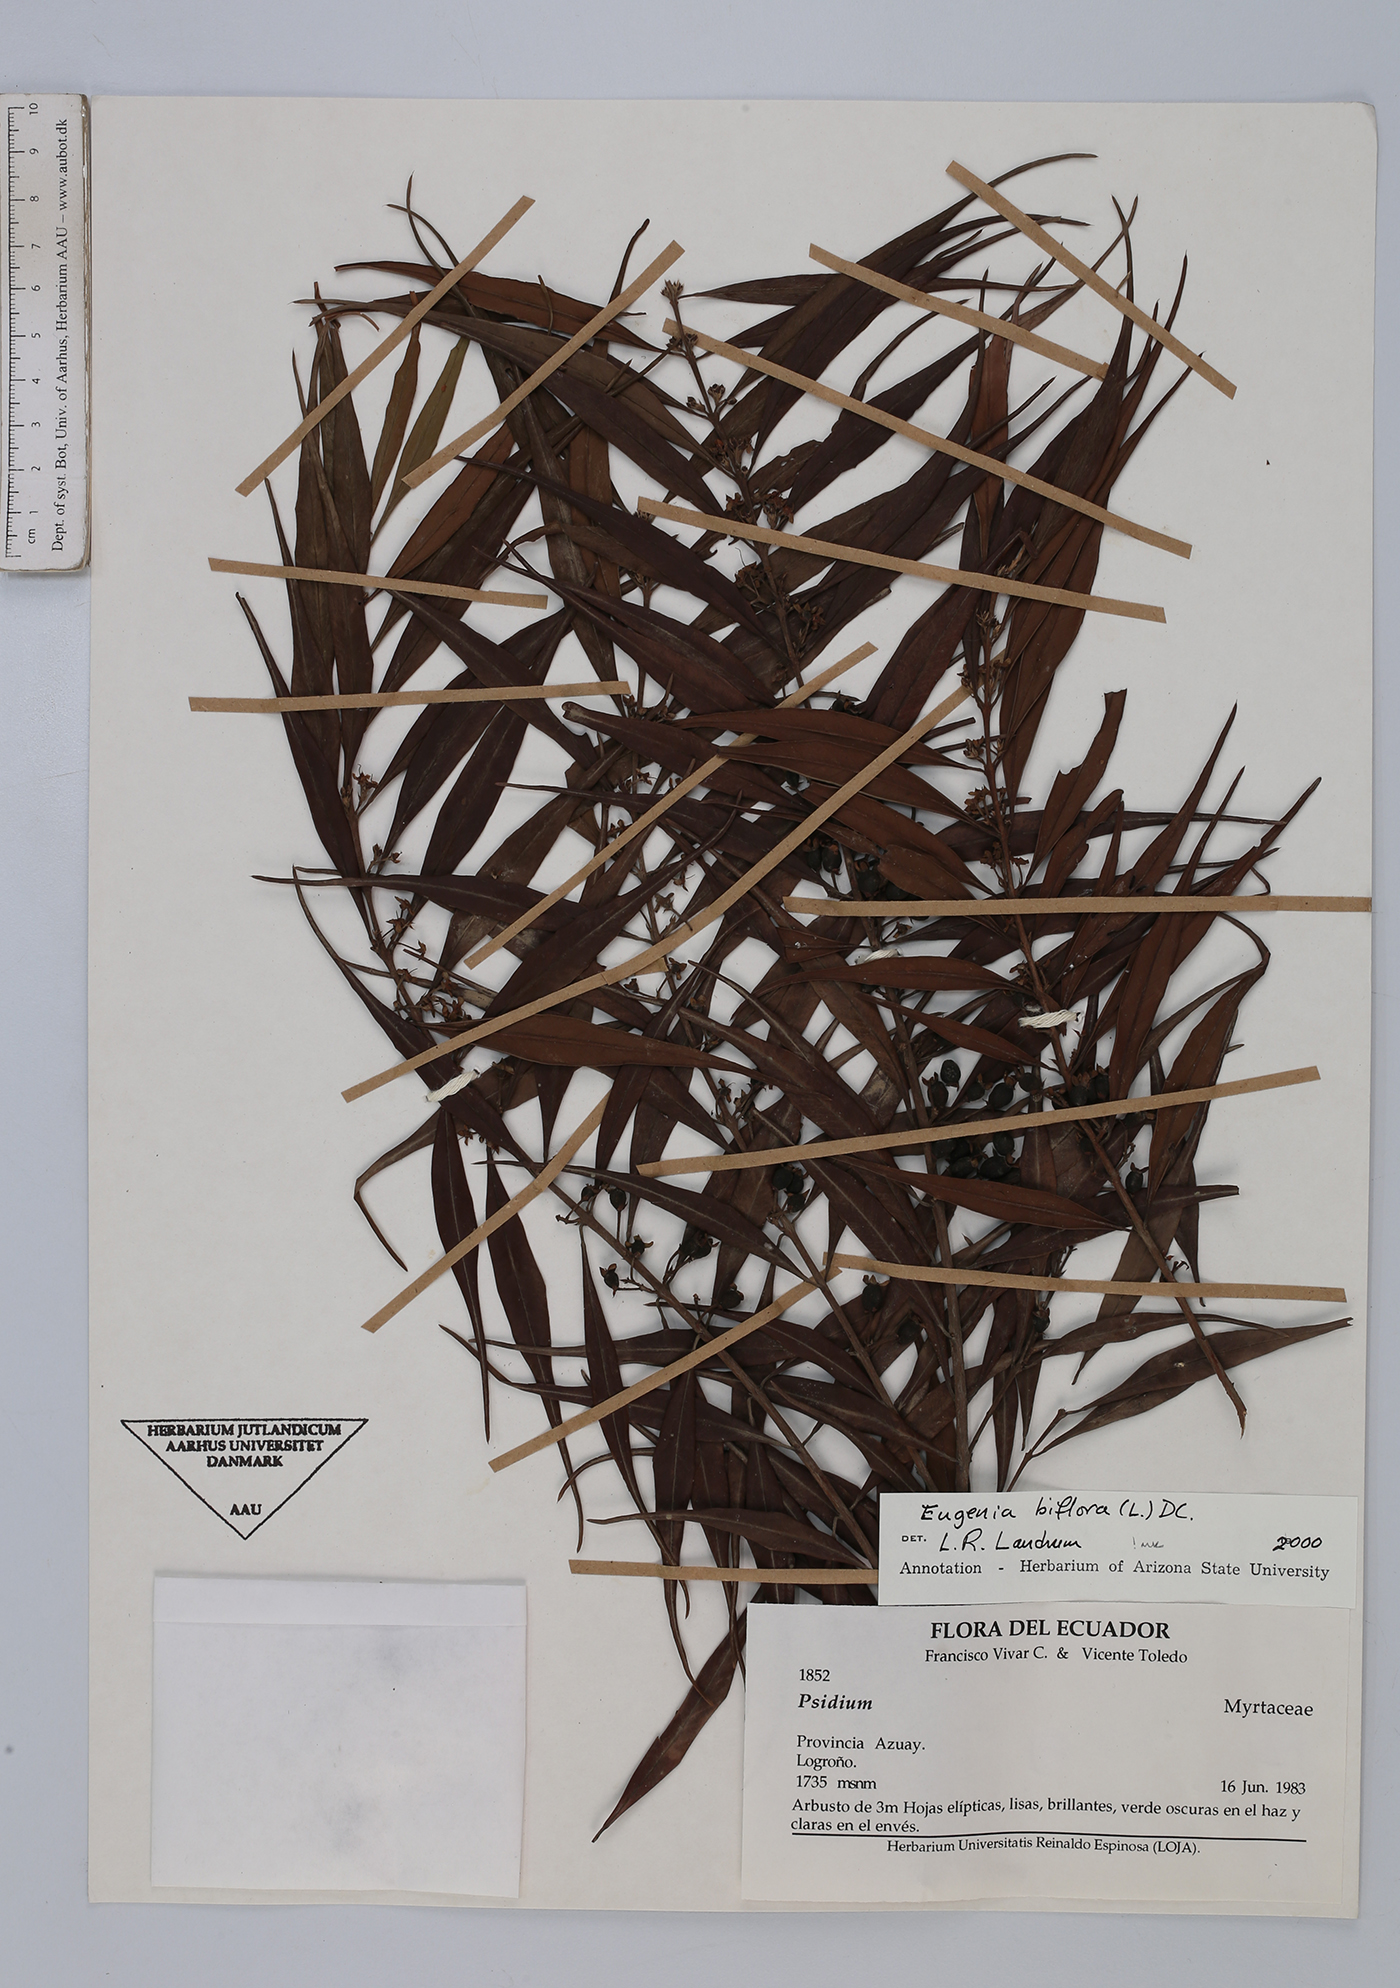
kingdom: Plantae
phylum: Tracheophyta
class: Magnoliopsida
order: Myrtales
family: Myrtaceae
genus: Eugenia
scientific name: Eugenia biflora
